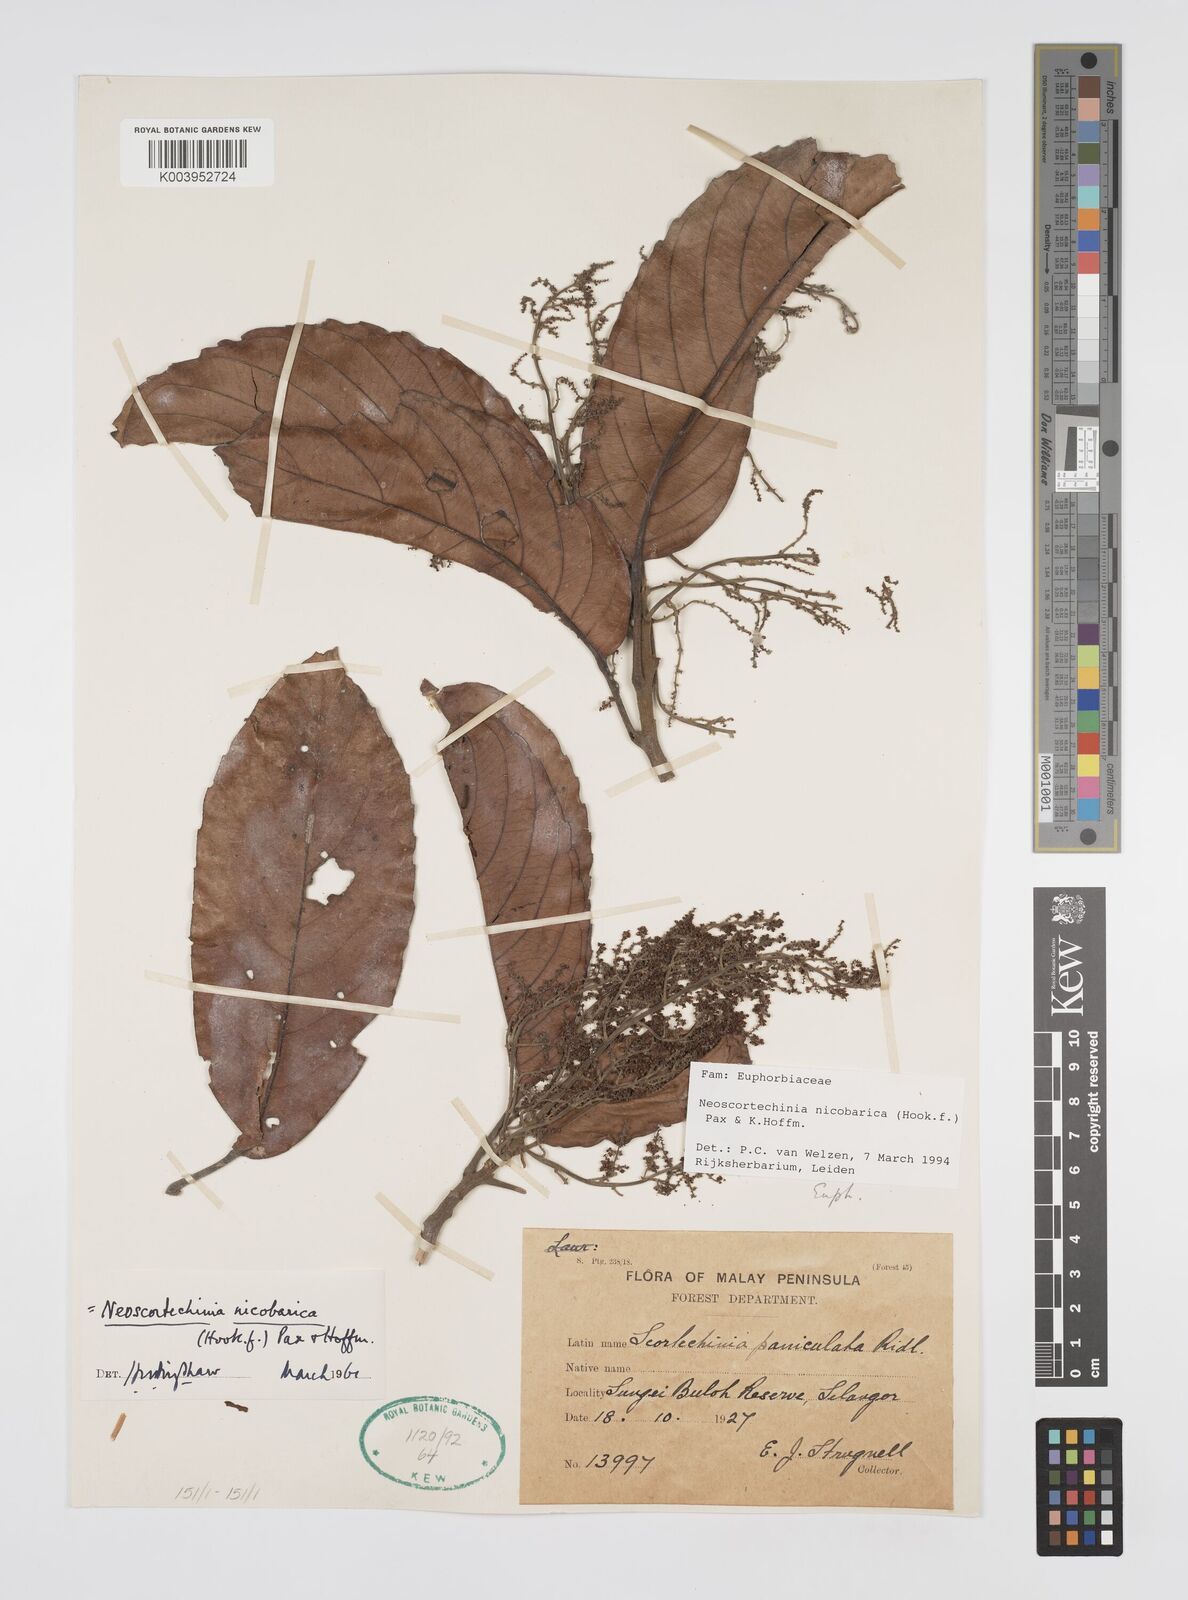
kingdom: Plantae
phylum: Tracheophyta
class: Magnoliopsida
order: Malpighiales
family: Euphorbiaceae
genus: Neoscortechinia
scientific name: Neoscortechinia nicobarica
